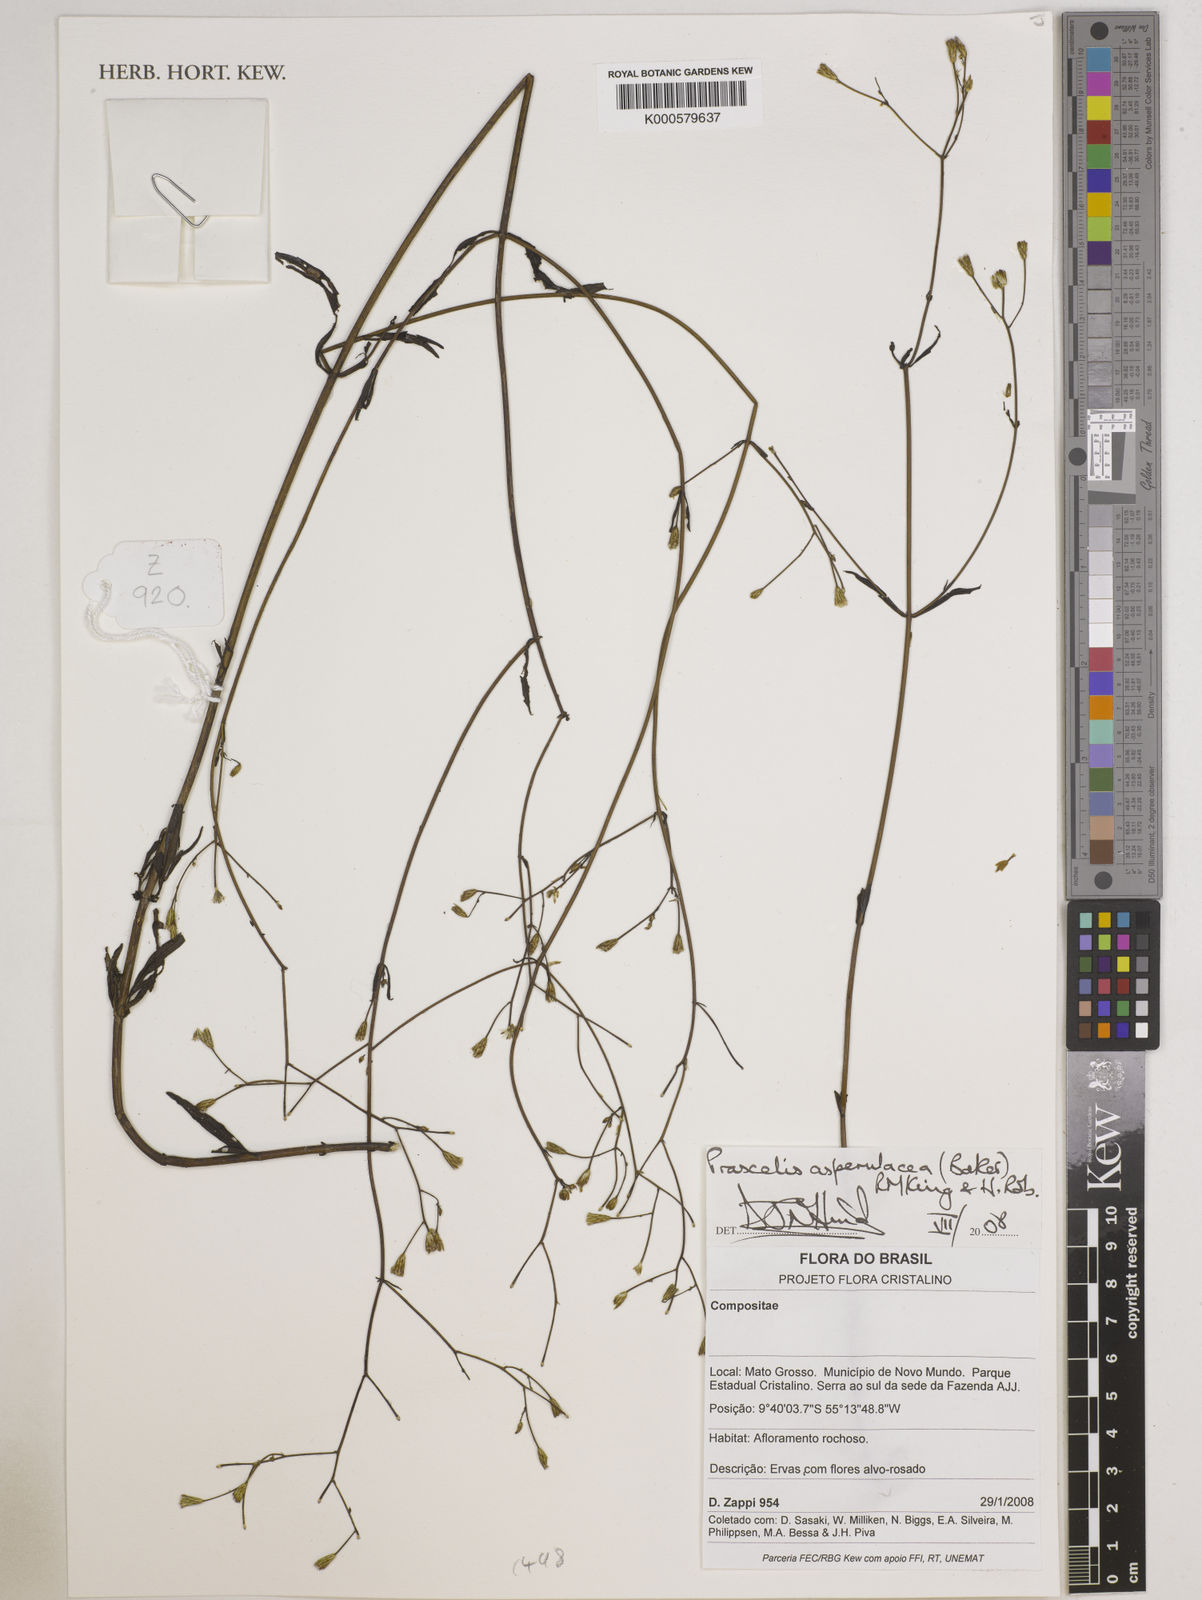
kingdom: Plantae
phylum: Tracheophyta
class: Magnoliopsida
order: Asterales
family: Asteraceae
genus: Praxelis
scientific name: Praxelis asperulacea
